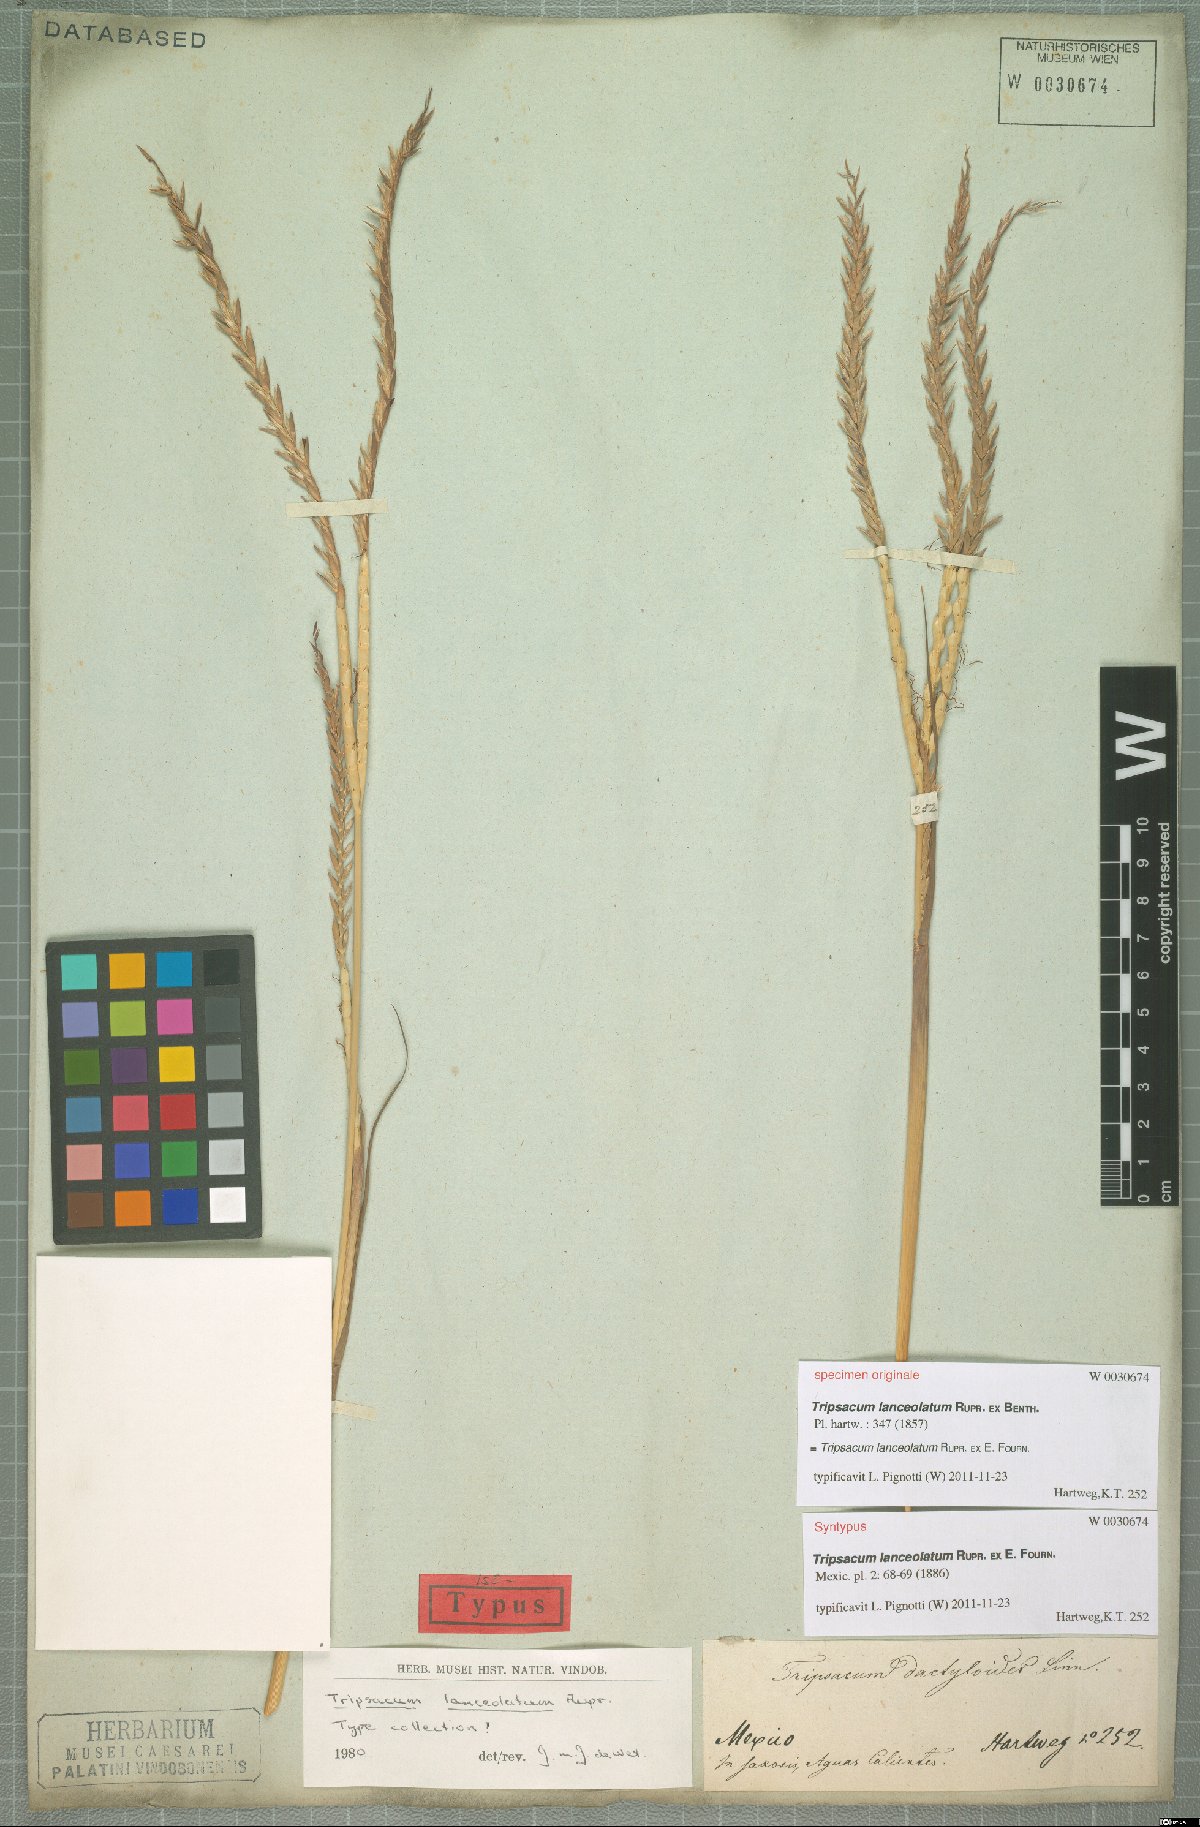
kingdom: Plantae
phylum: Tracheophyta
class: Liliopsida
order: Poales
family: Poaceae
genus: Tripsacum
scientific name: Tripsacum lanceolatum
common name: Mexican gama grass
